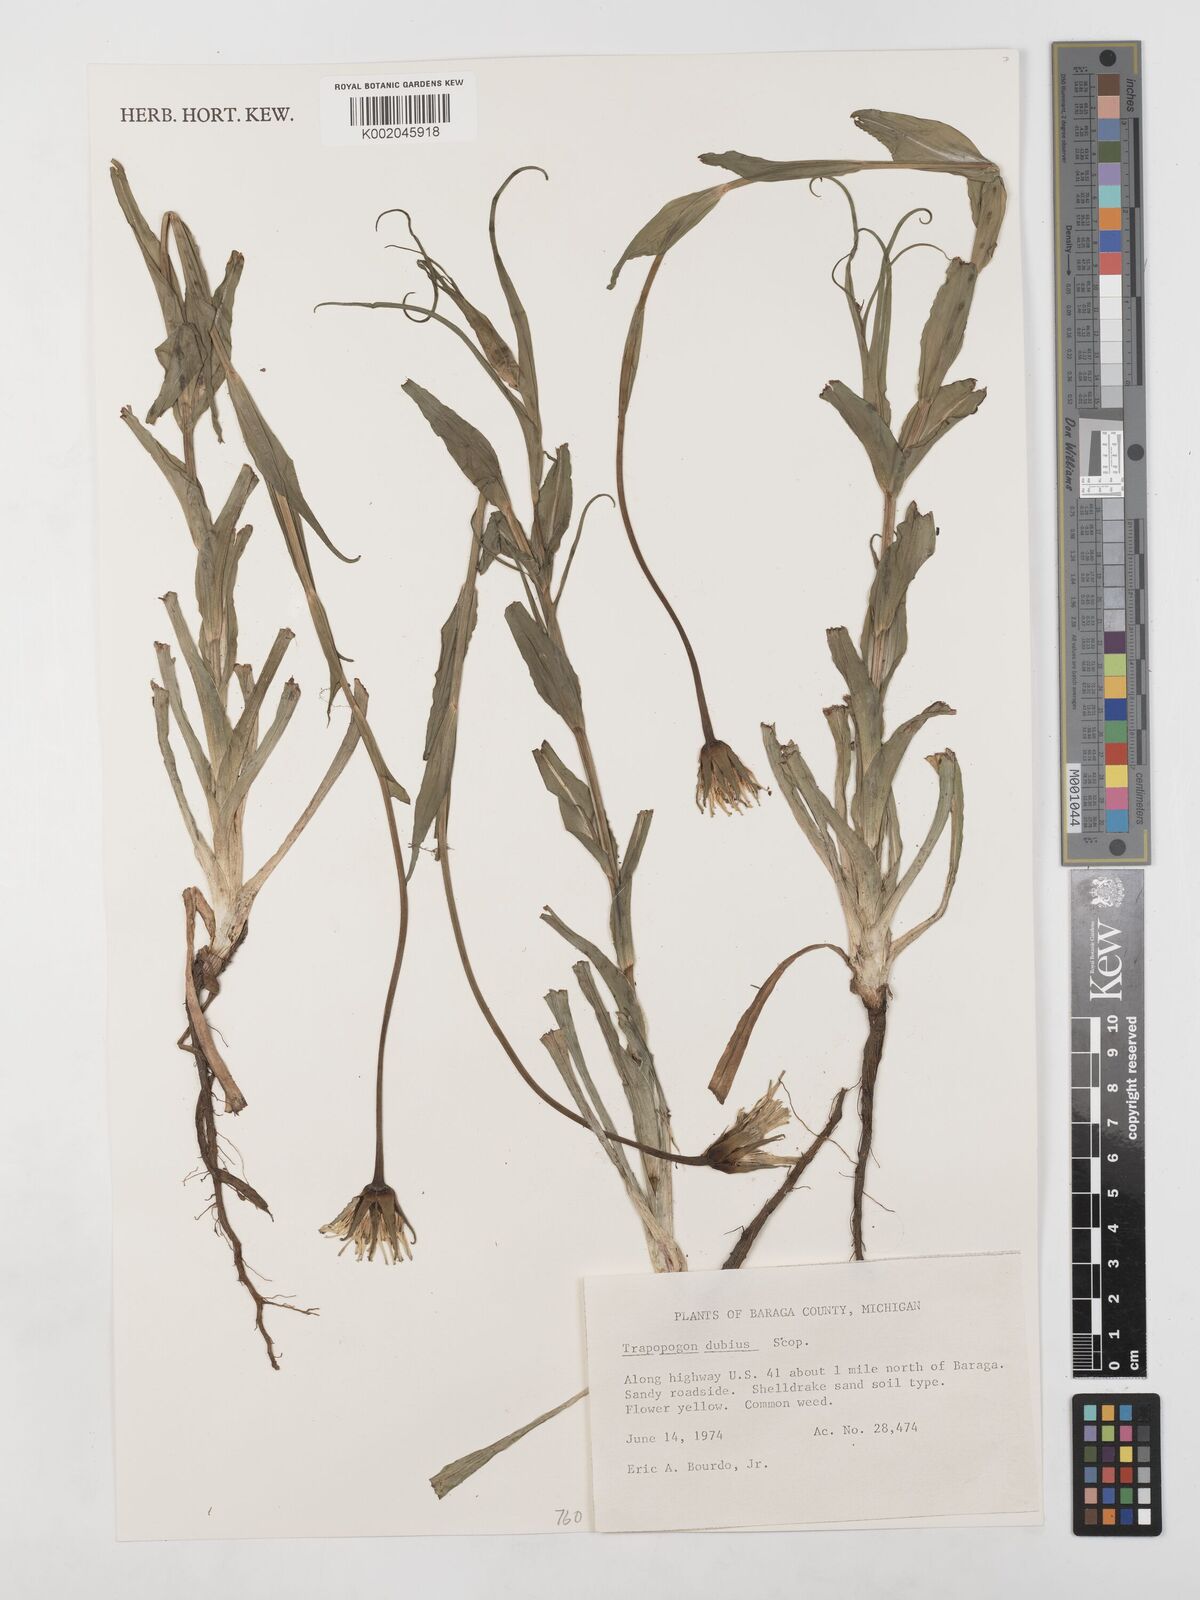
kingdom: Plantae
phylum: Tracheophyta
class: Magnoliopsida
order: Asterales
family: Asteraceae
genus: Tragopogon
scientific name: Tragopogon dubius
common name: Yellow salsify
